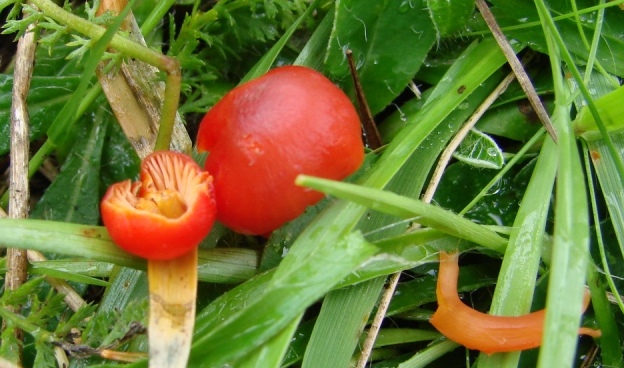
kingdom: Fungi
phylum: Basidiomycota
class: Agaricomycetes
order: Agaricales
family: Hygrophoraceae
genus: Hygrocybe
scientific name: Hygrocybe phaeococcinea
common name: sortdugget vokshat
